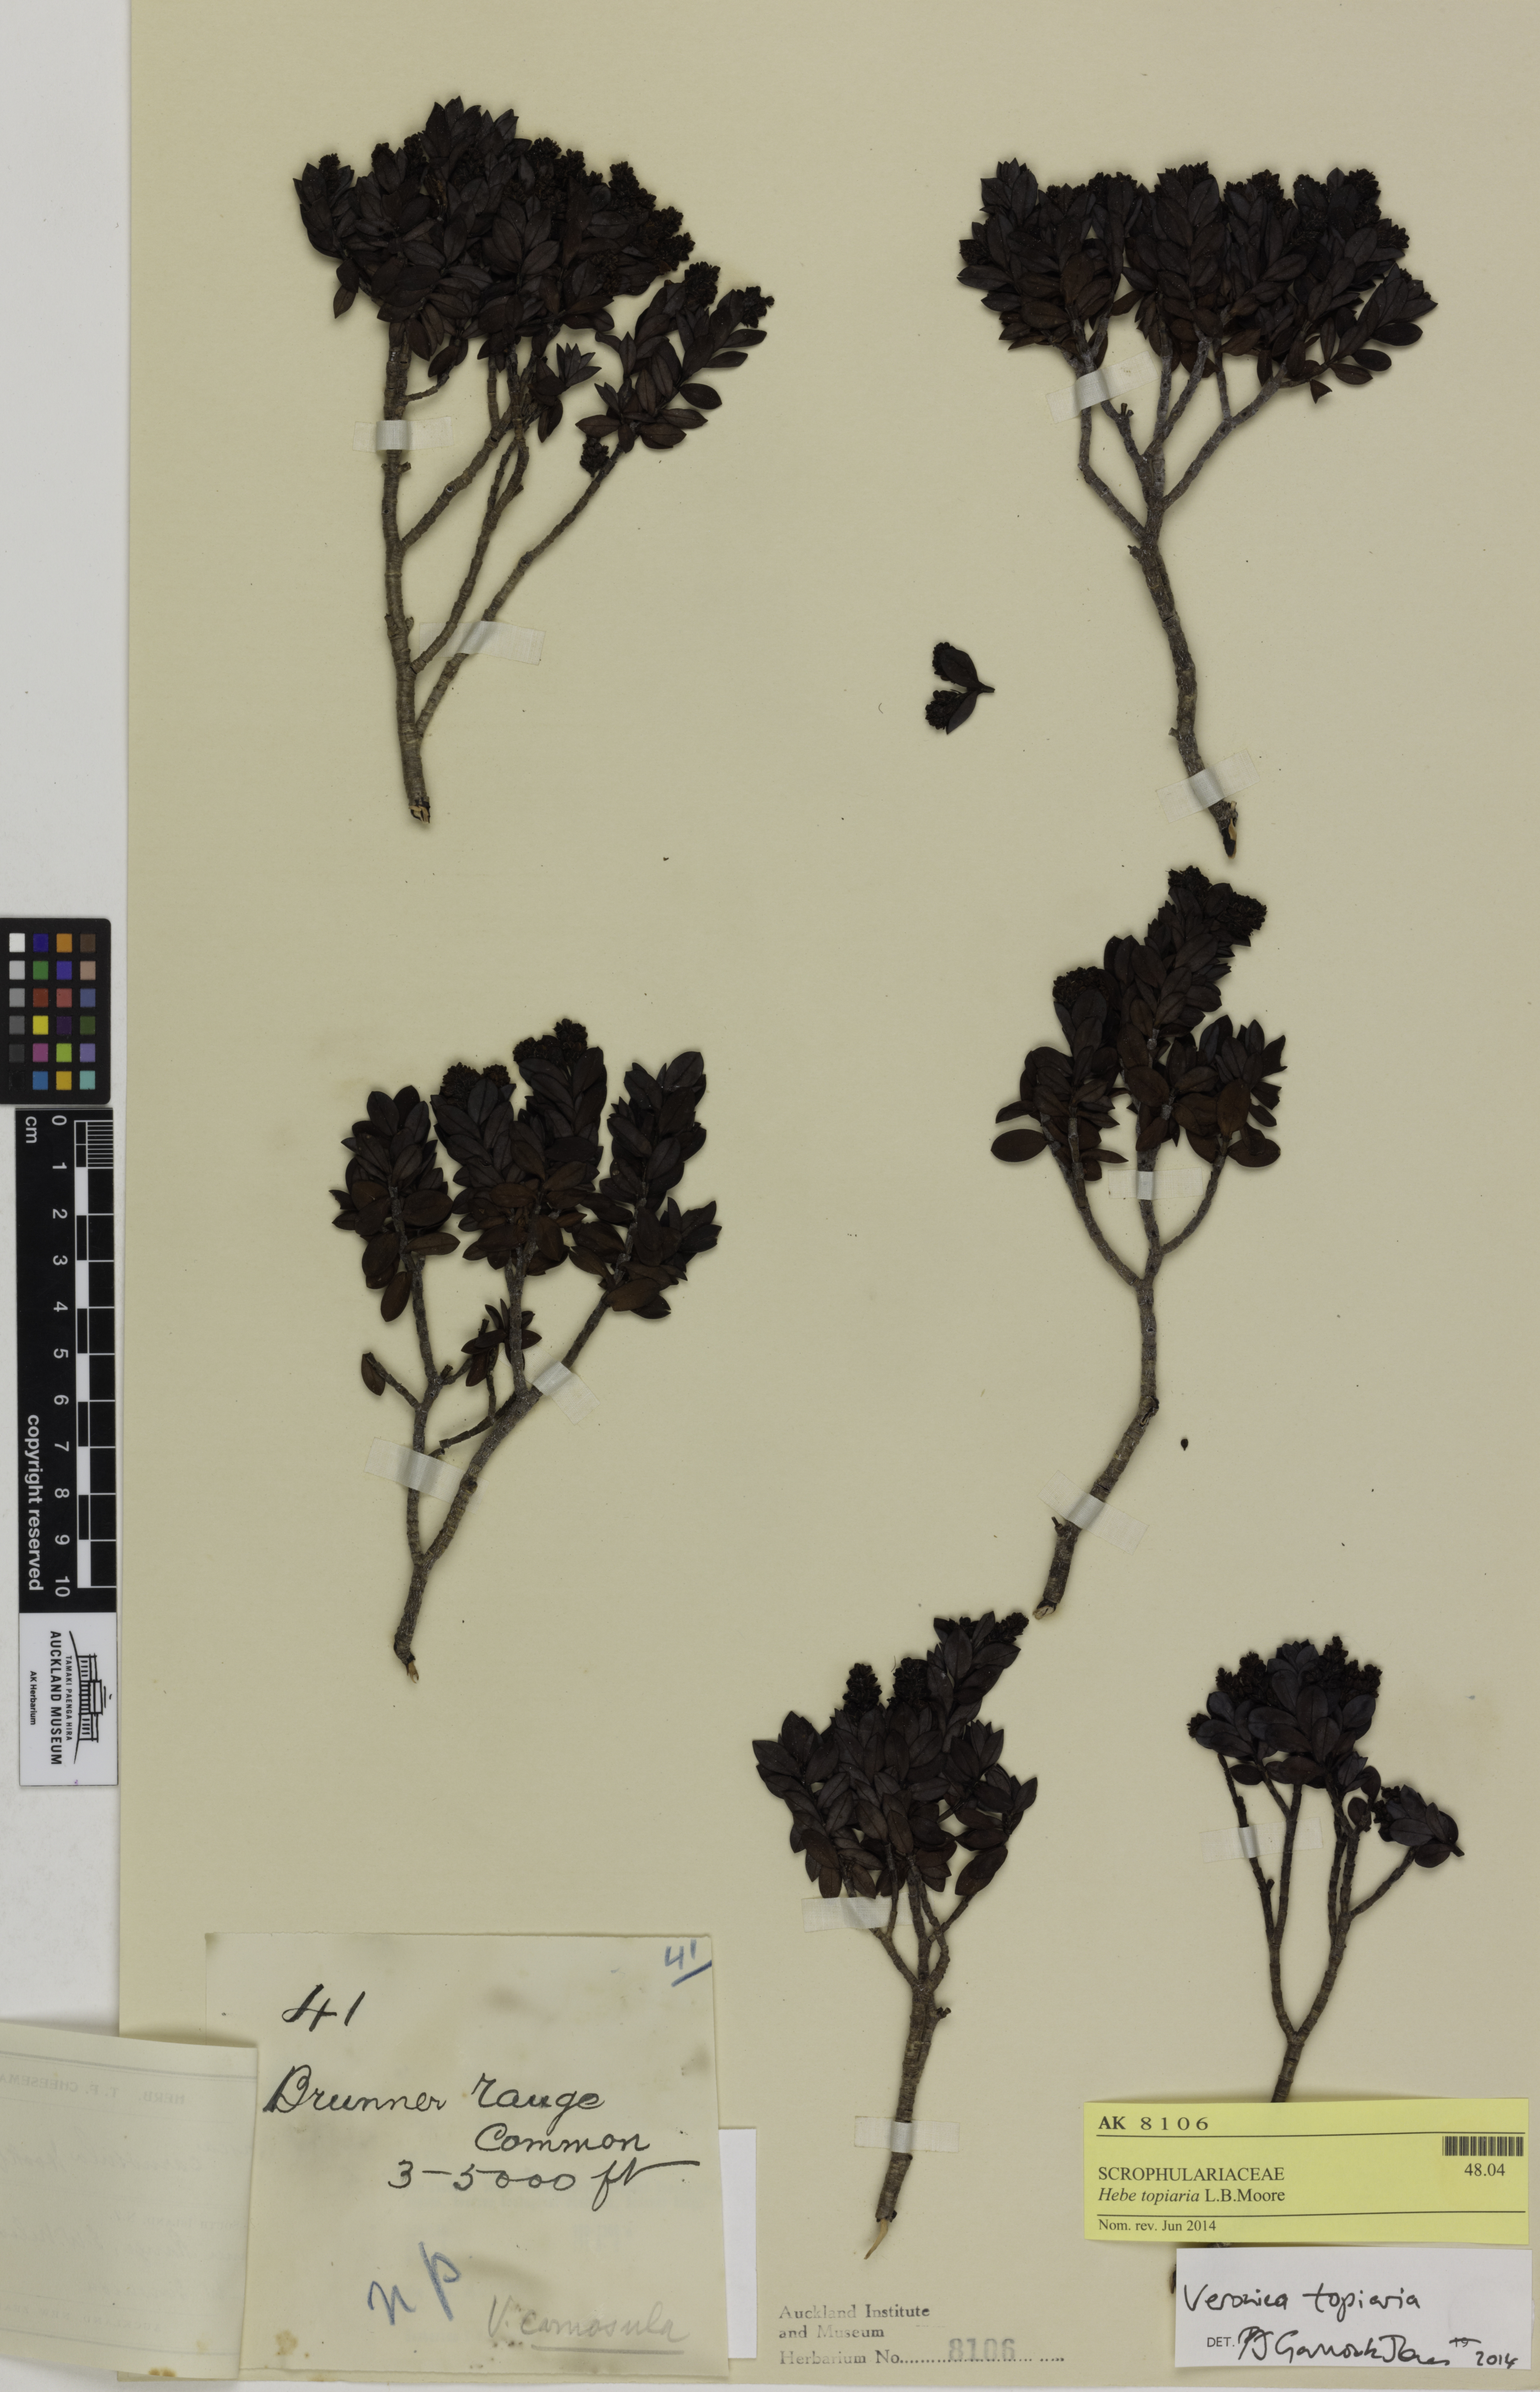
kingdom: Plantae
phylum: Tracheophyta
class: Magnoliopsida
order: Lamiales
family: Plantaginaceae
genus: Veronica
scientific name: Veronica topiaria
